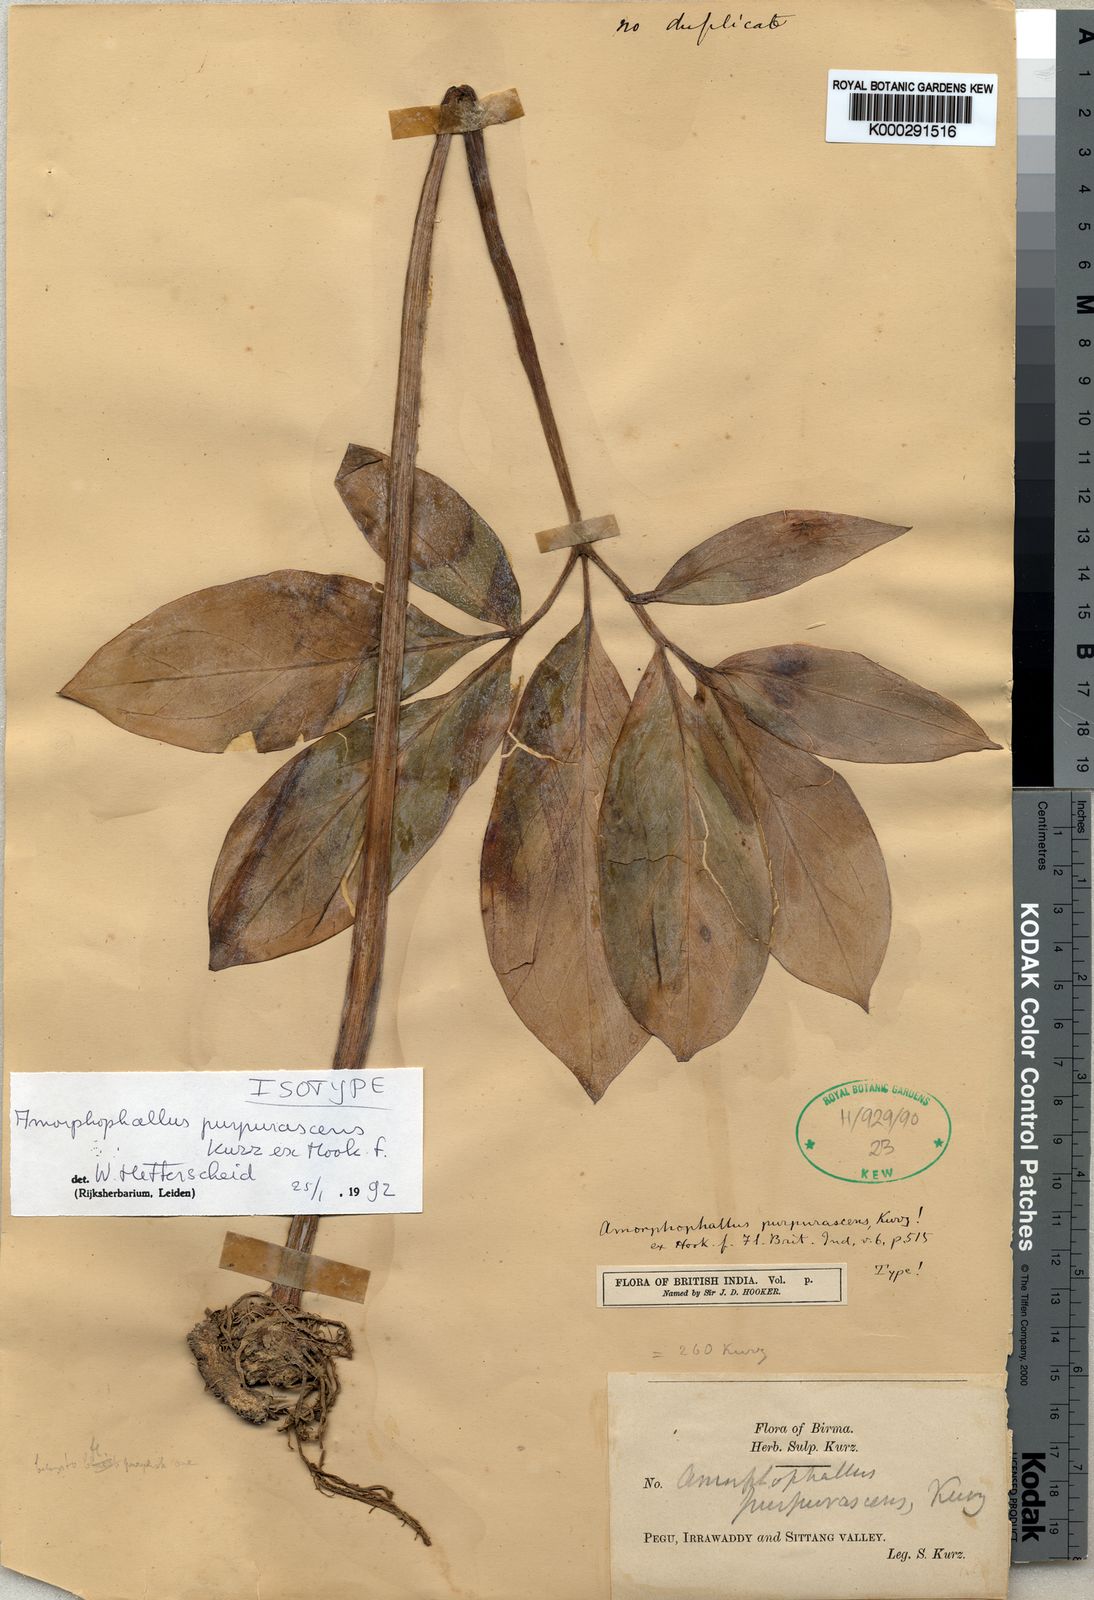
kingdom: Plantae
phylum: Tracheophyta
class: Liliopsida
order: Alismatales
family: Araceae
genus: Amorphophallus
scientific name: Amorphophallus purpurascens
